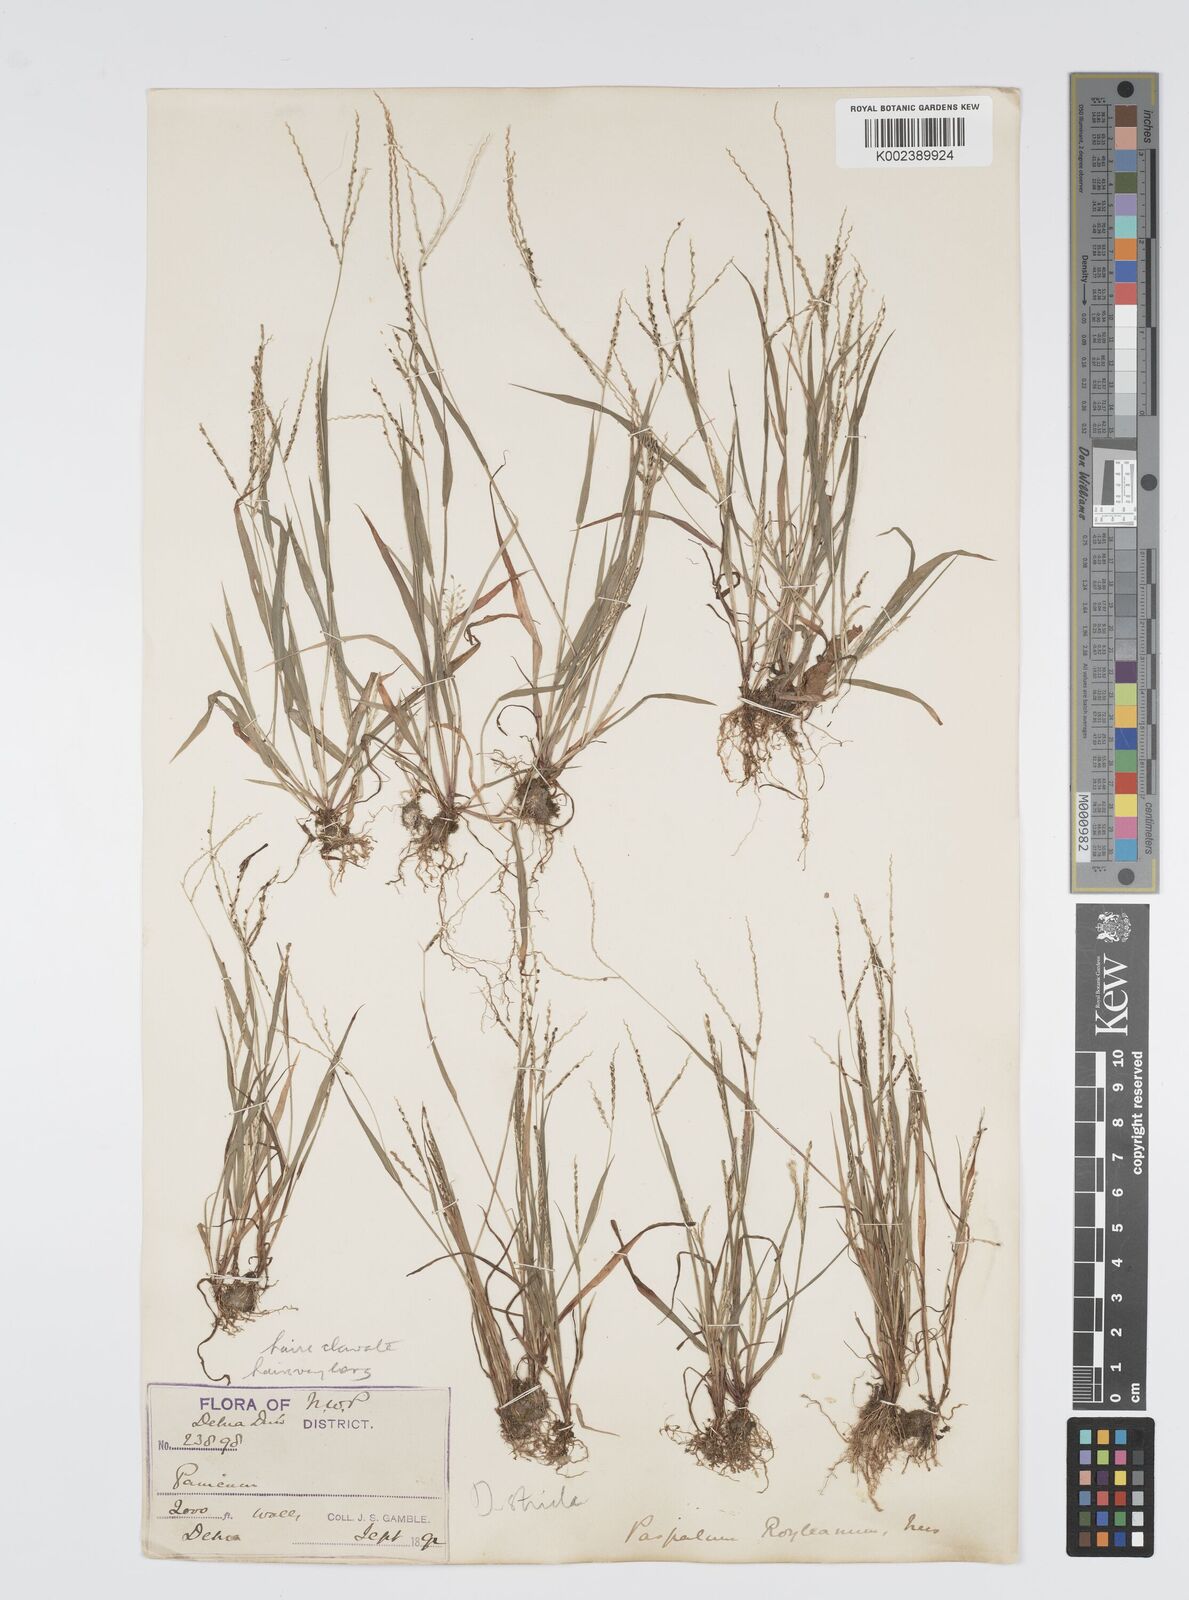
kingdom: Plantae
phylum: Tracheophyta
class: Liliopsida
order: Poales
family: Poaceae
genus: Digitaria
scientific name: Digitaria stricta
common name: Crabgrass
